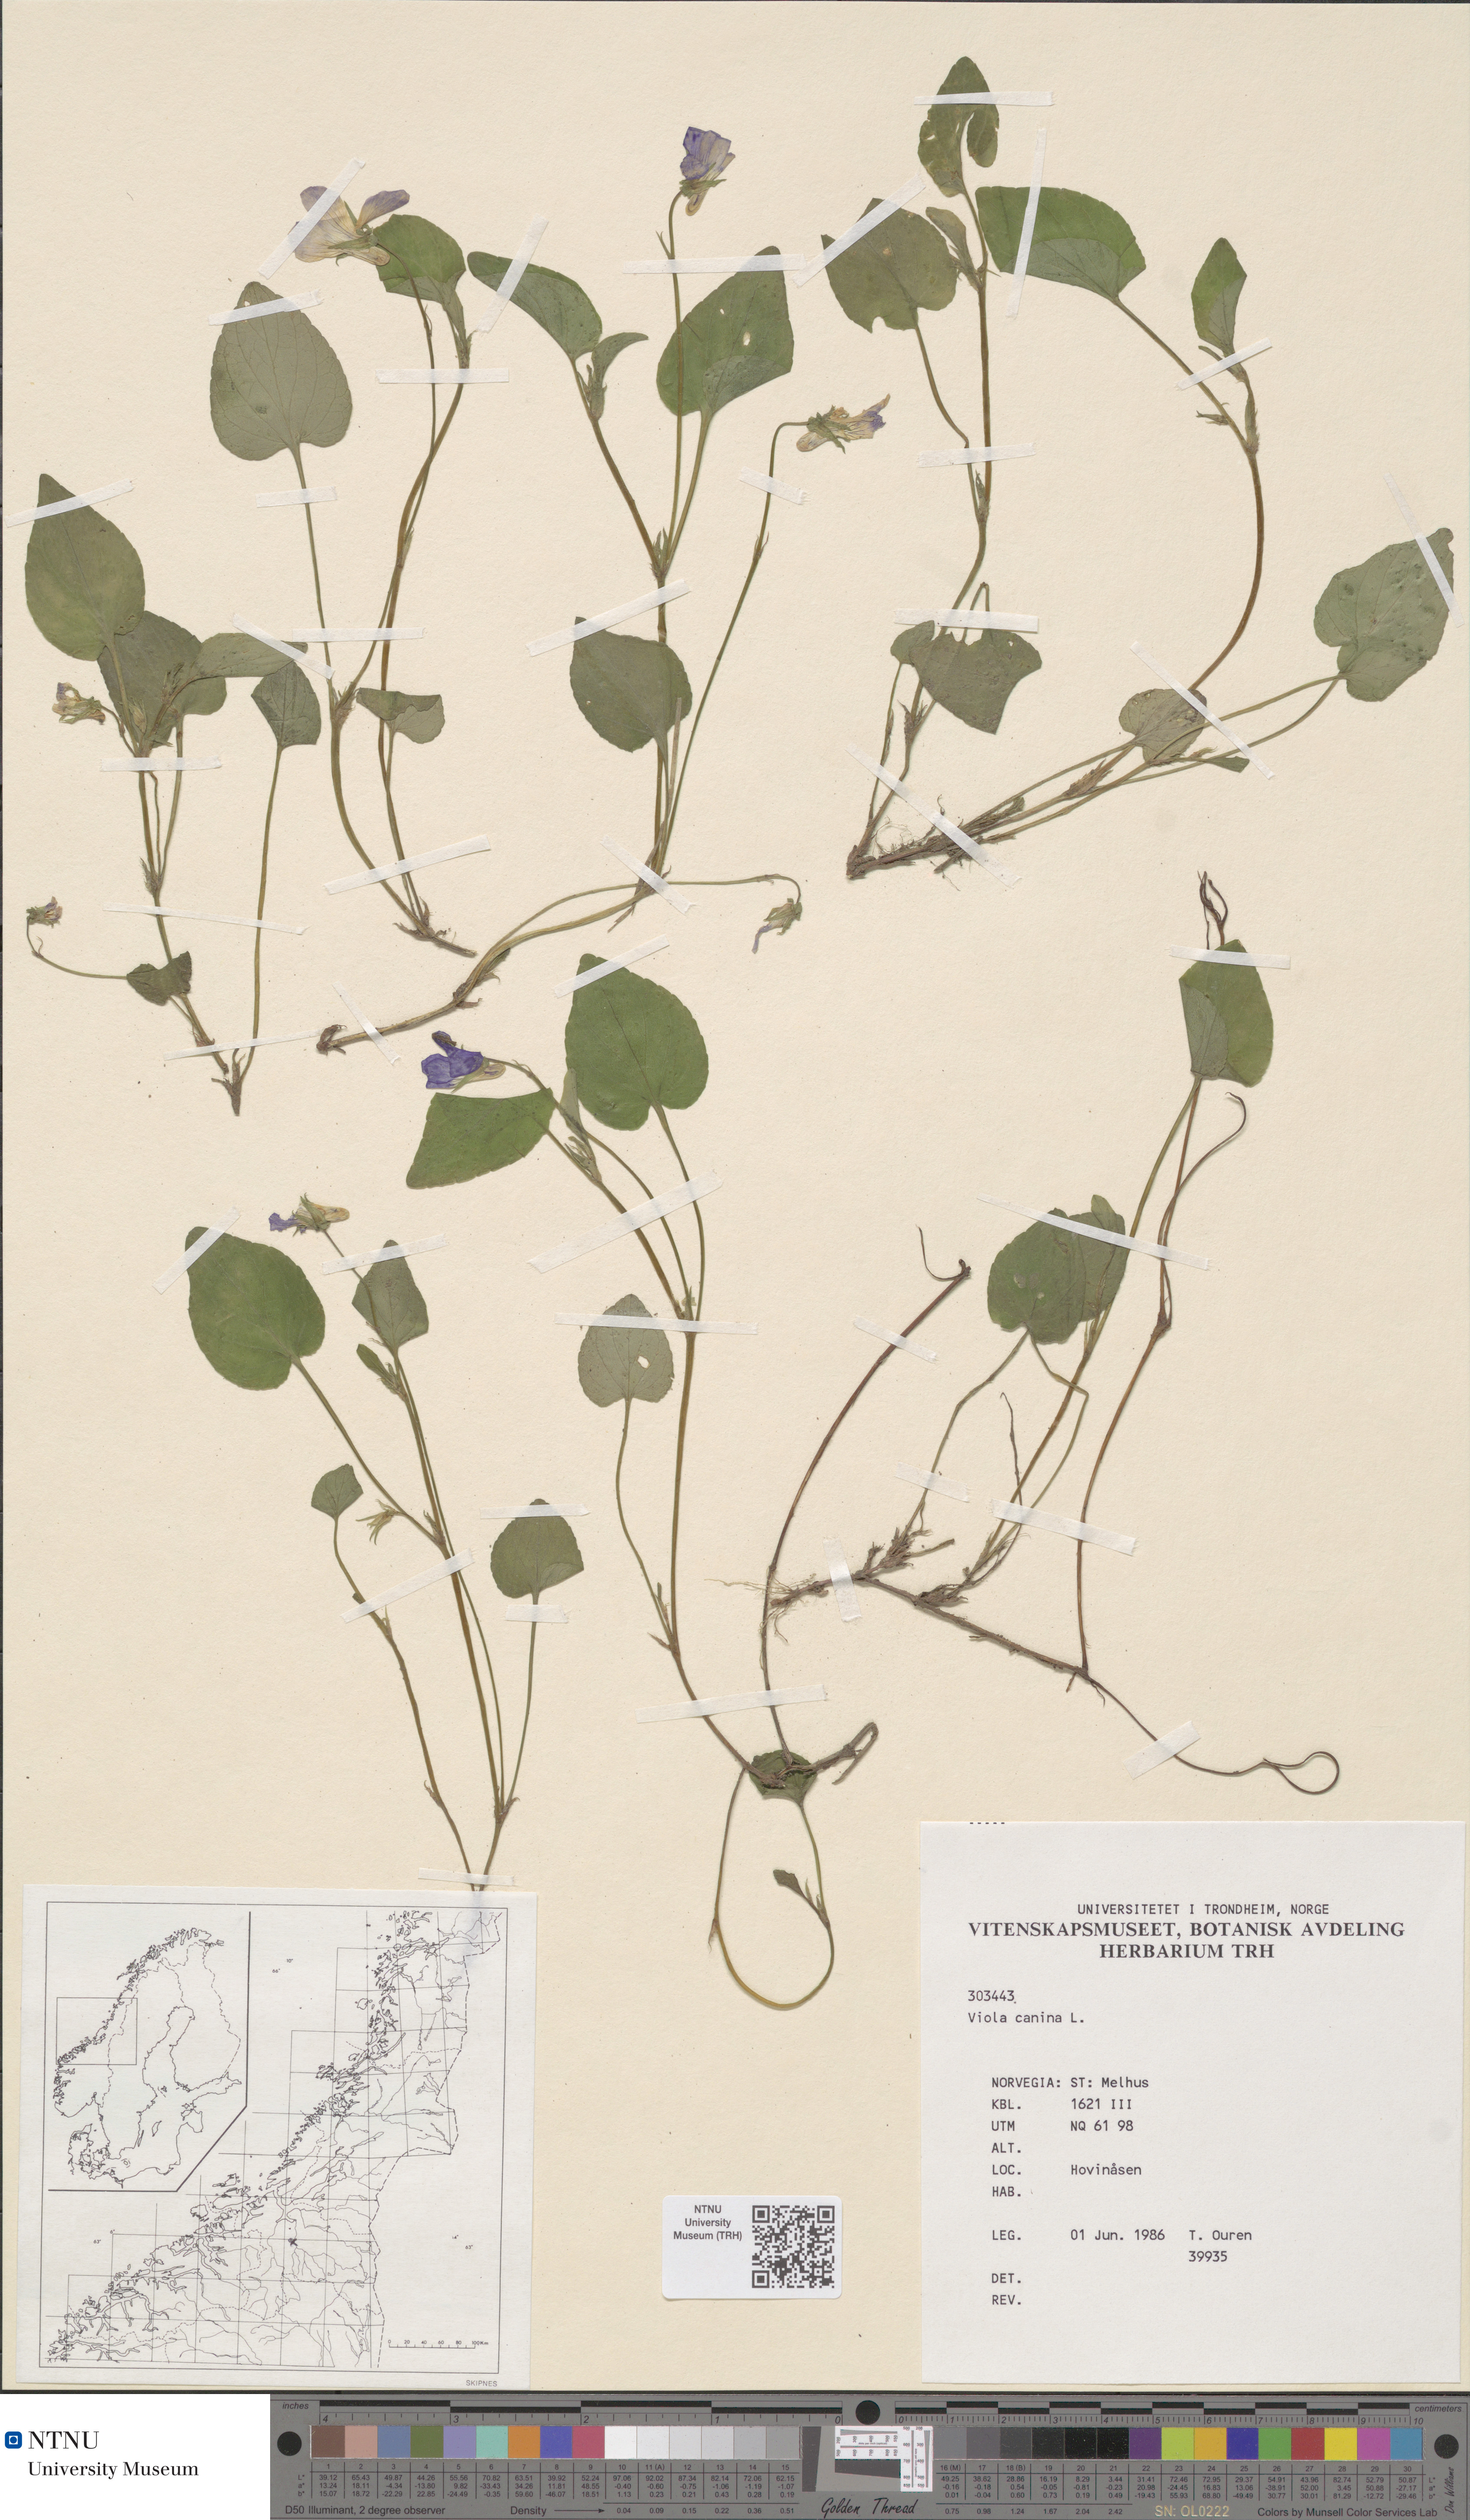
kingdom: Plantae
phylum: Tracheophyta
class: Magnoliopsida
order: Malpighiales
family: Violaceae
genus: Viola
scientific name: Viola canina
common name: Heath dog-violet
